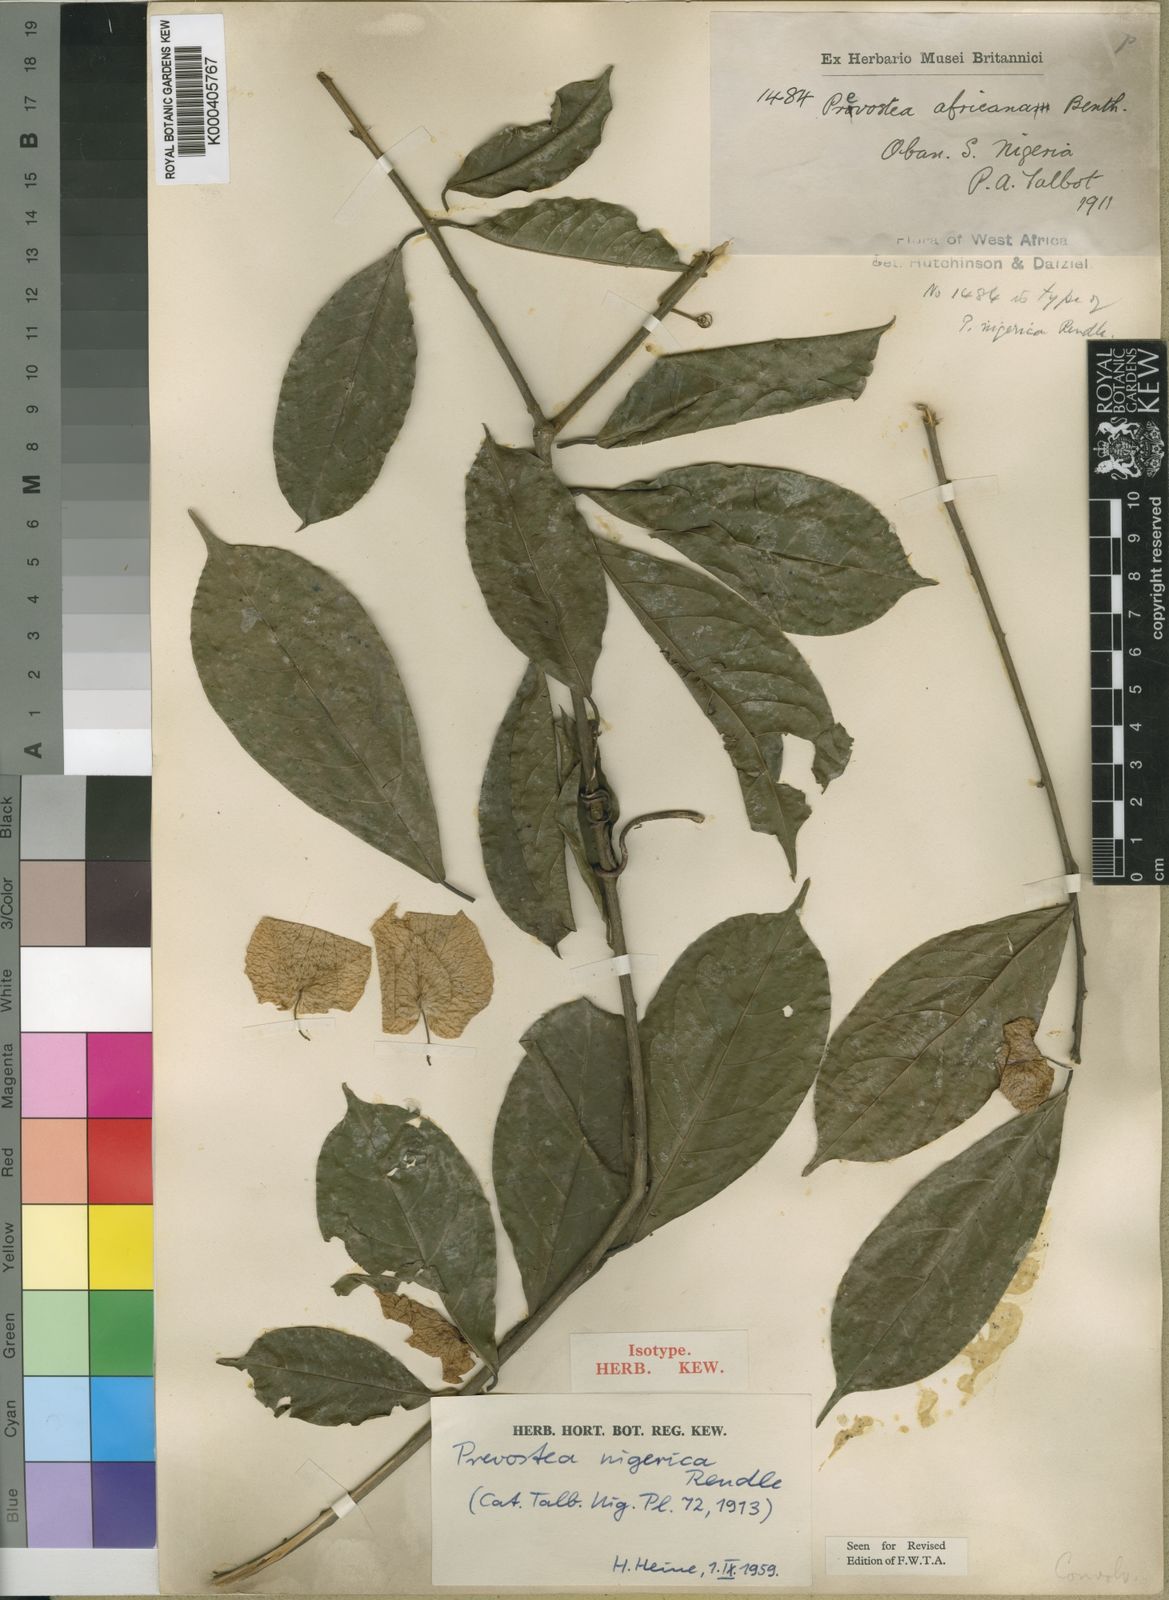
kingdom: Plantae
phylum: Tracheophyta
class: Magnoliopsida
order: Solanales
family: Convolvulaceae
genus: Calycobolus
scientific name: Calycobolus africanus
